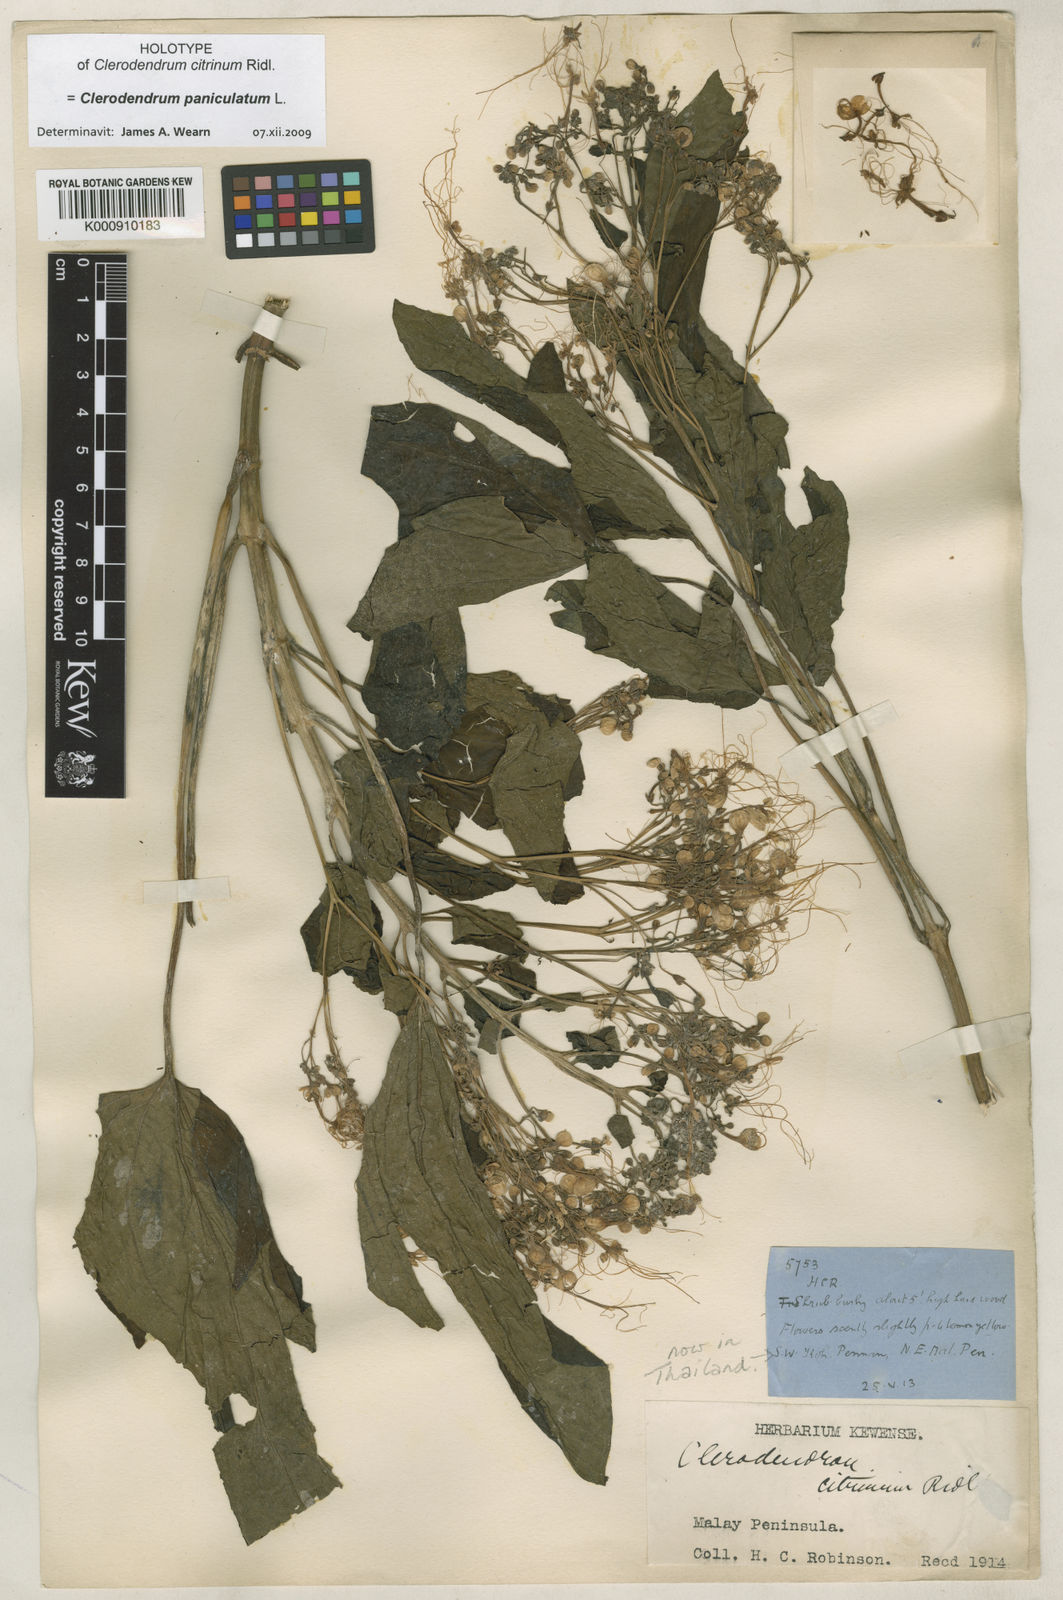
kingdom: Plantae
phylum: Tracheophyta
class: Magnoliopsida
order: Lamiales
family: Lamiaceae
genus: Clerodendrum
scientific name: Clerodendrum paniculatum
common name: Pagoda-flower
